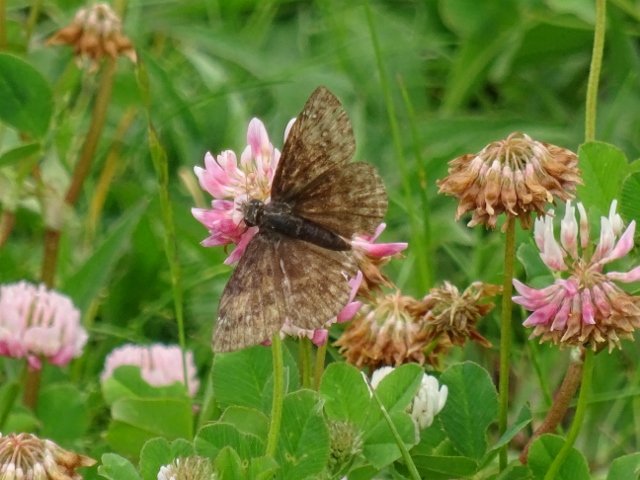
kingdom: Animalia
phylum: Arthropoda
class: Insecta
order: Lepidoptera
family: Hesperiidae
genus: Gesta
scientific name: Gesta
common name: Juvenal's Duskywing
